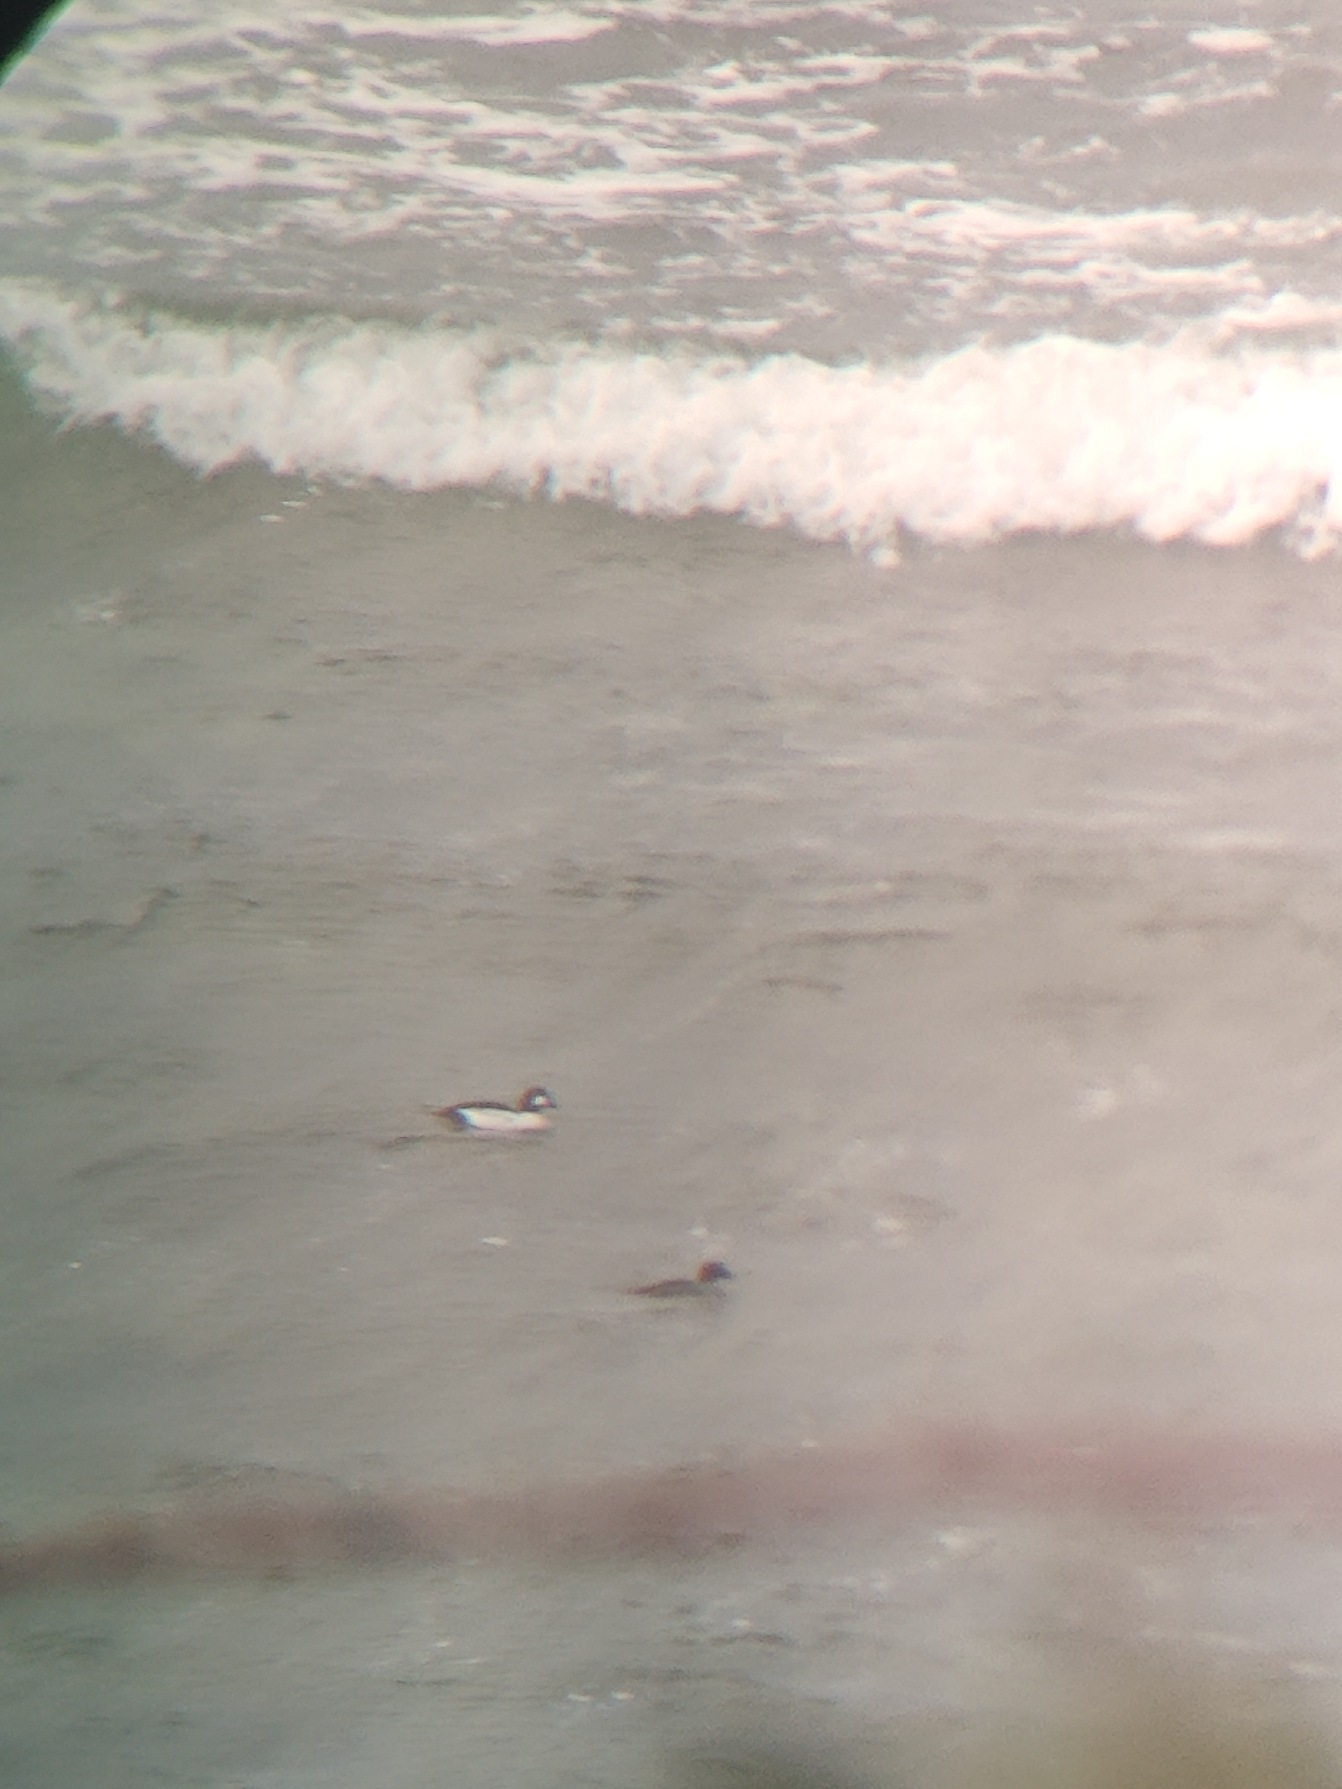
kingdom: Animalia
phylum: Chordata
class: Aves
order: Anseriformes
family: Anatidae
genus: Bucephala
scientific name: Bucephala clangula
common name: Hvinand
